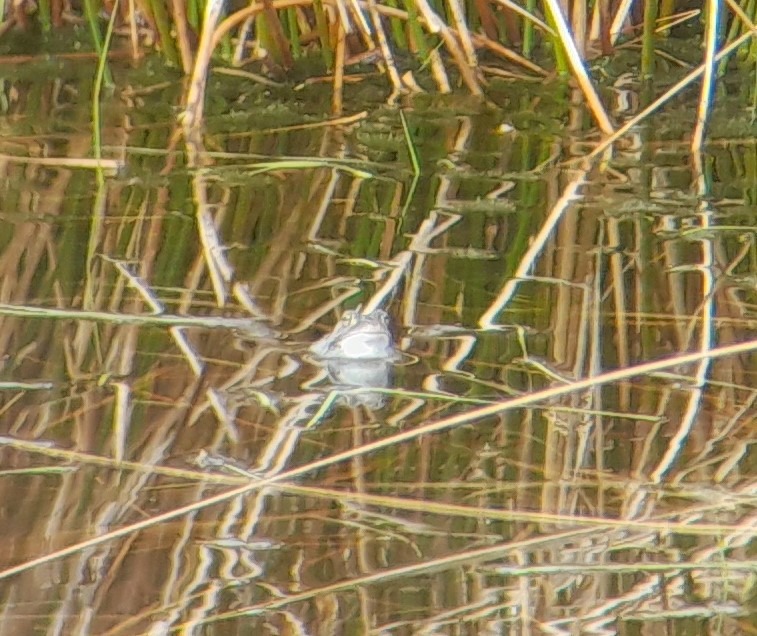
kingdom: Animalia
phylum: Chordata
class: Amphibia
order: Anura
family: Ranidae
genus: Rana
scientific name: Rana arvalis
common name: Spidssnudet frø
